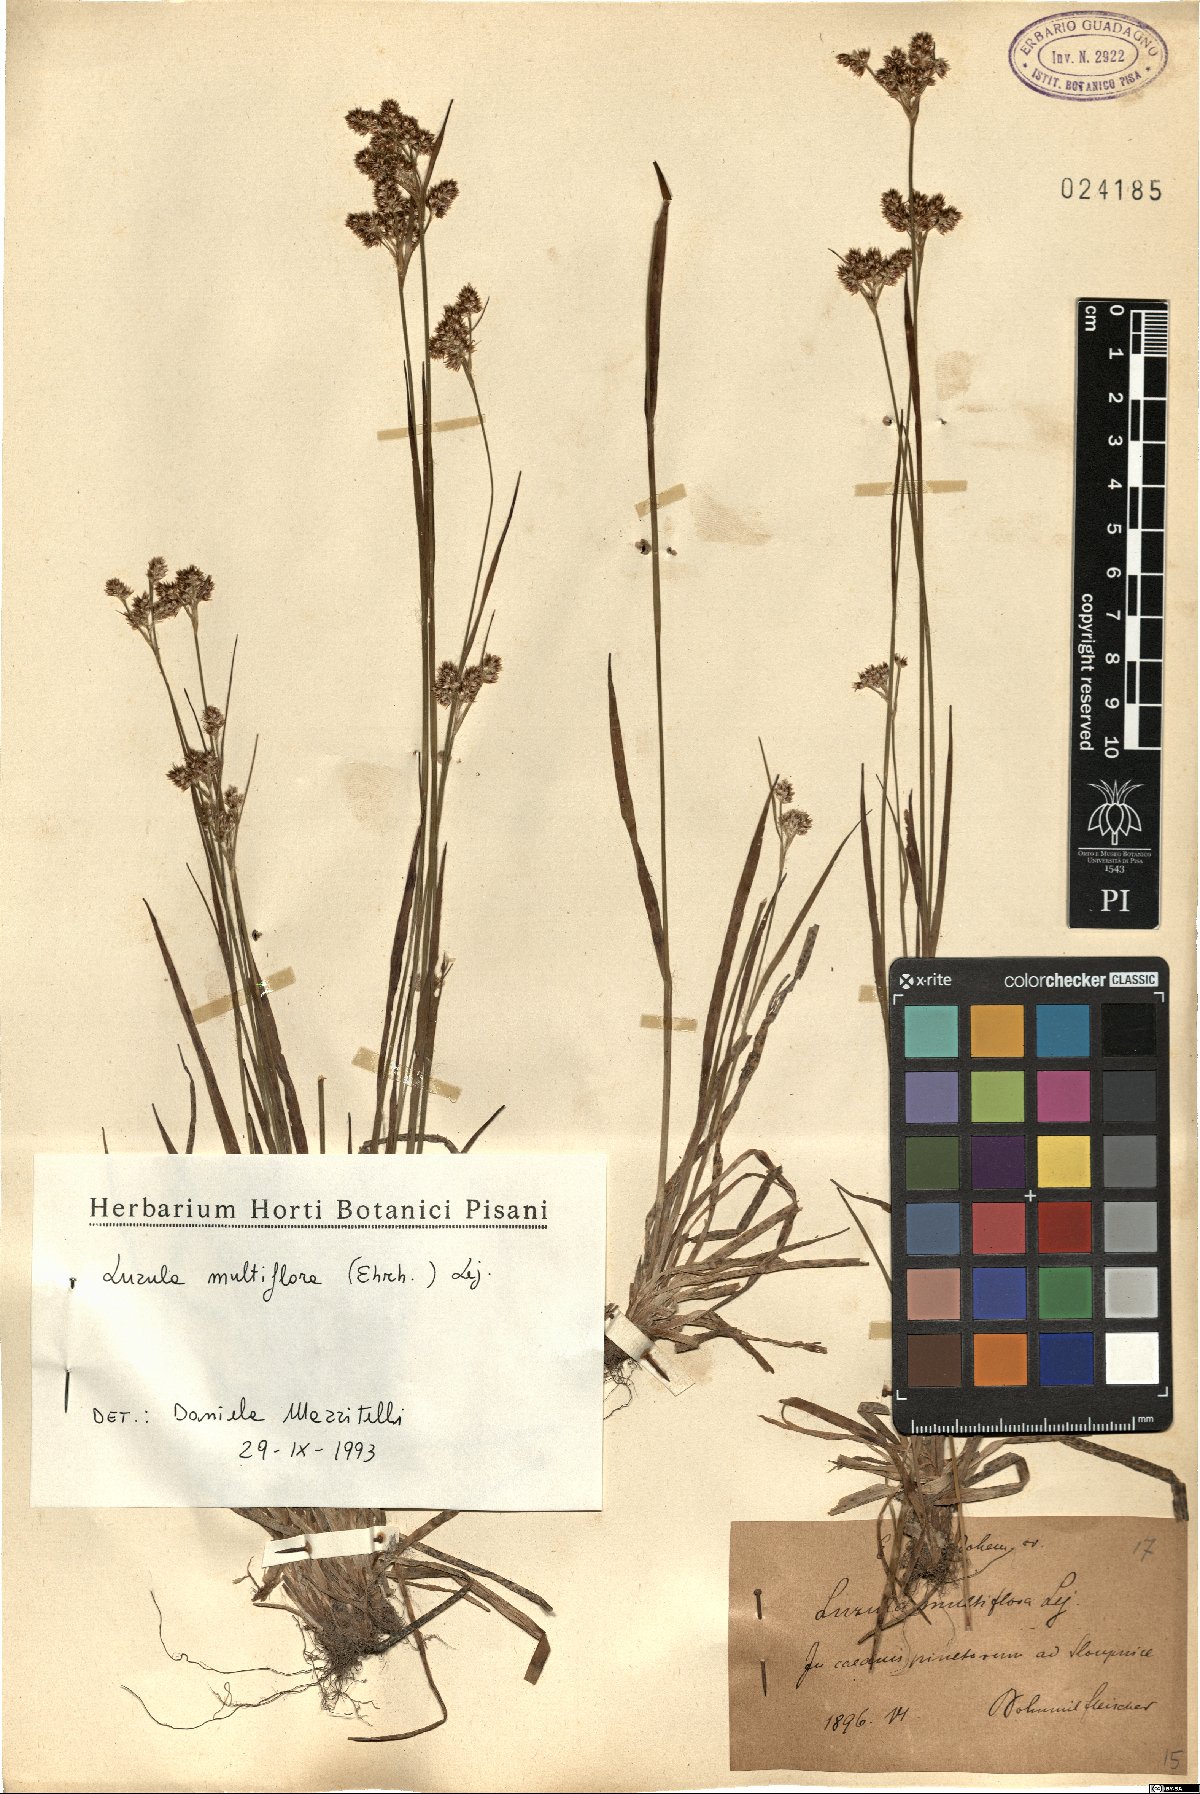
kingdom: Plantae
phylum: Tracheophyta
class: Liliopsida
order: Poales
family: Juncaceae
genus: Luzula
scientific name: Luzula multiflora
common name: Heath wood-rush
